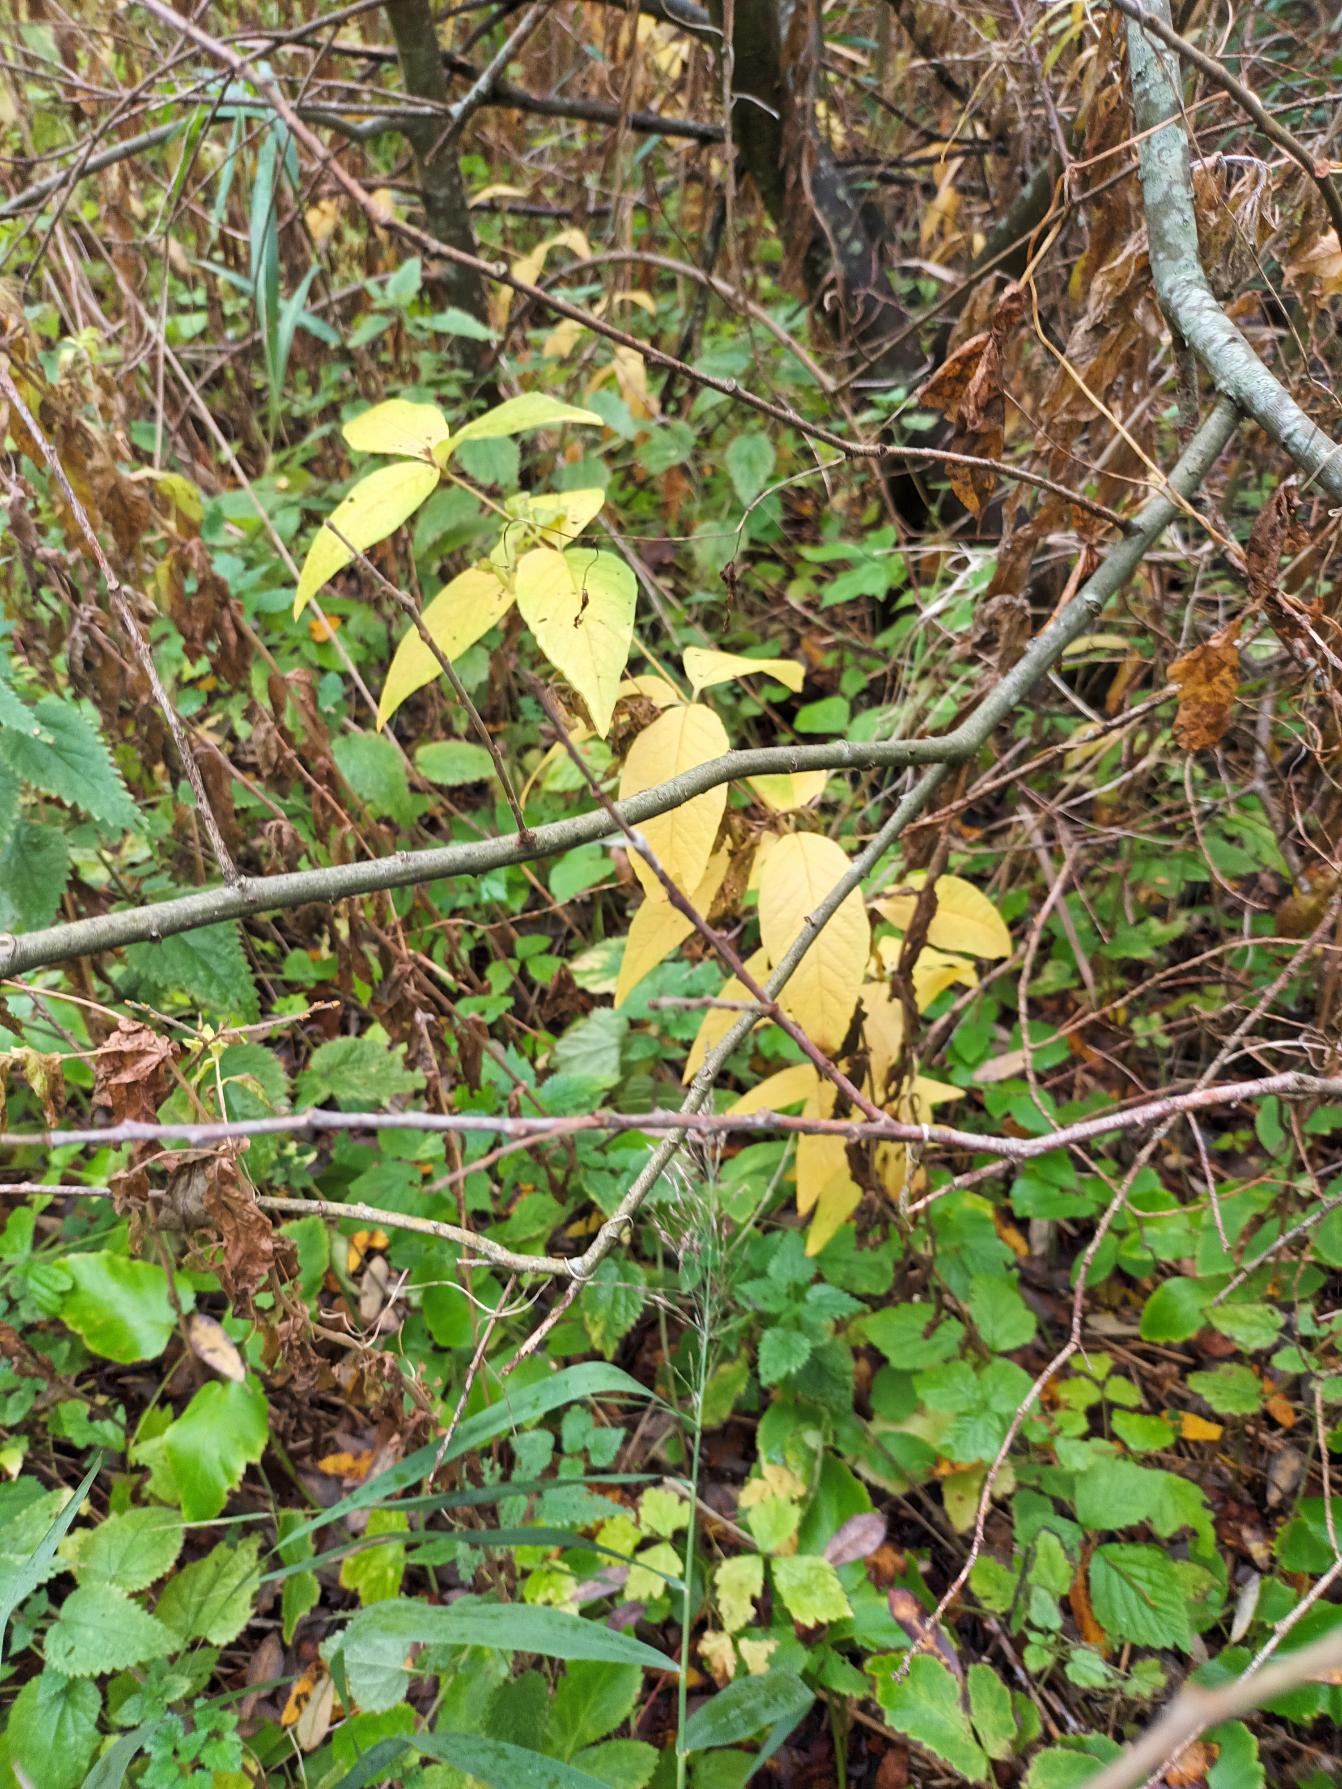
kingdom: Plantae
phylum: Tracheophyta
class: Magnoliopsida
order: Ericales
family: Primulaceae
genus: Lysimachia
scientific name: Lysimachia vulgaris
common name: Almindelig fredløs
